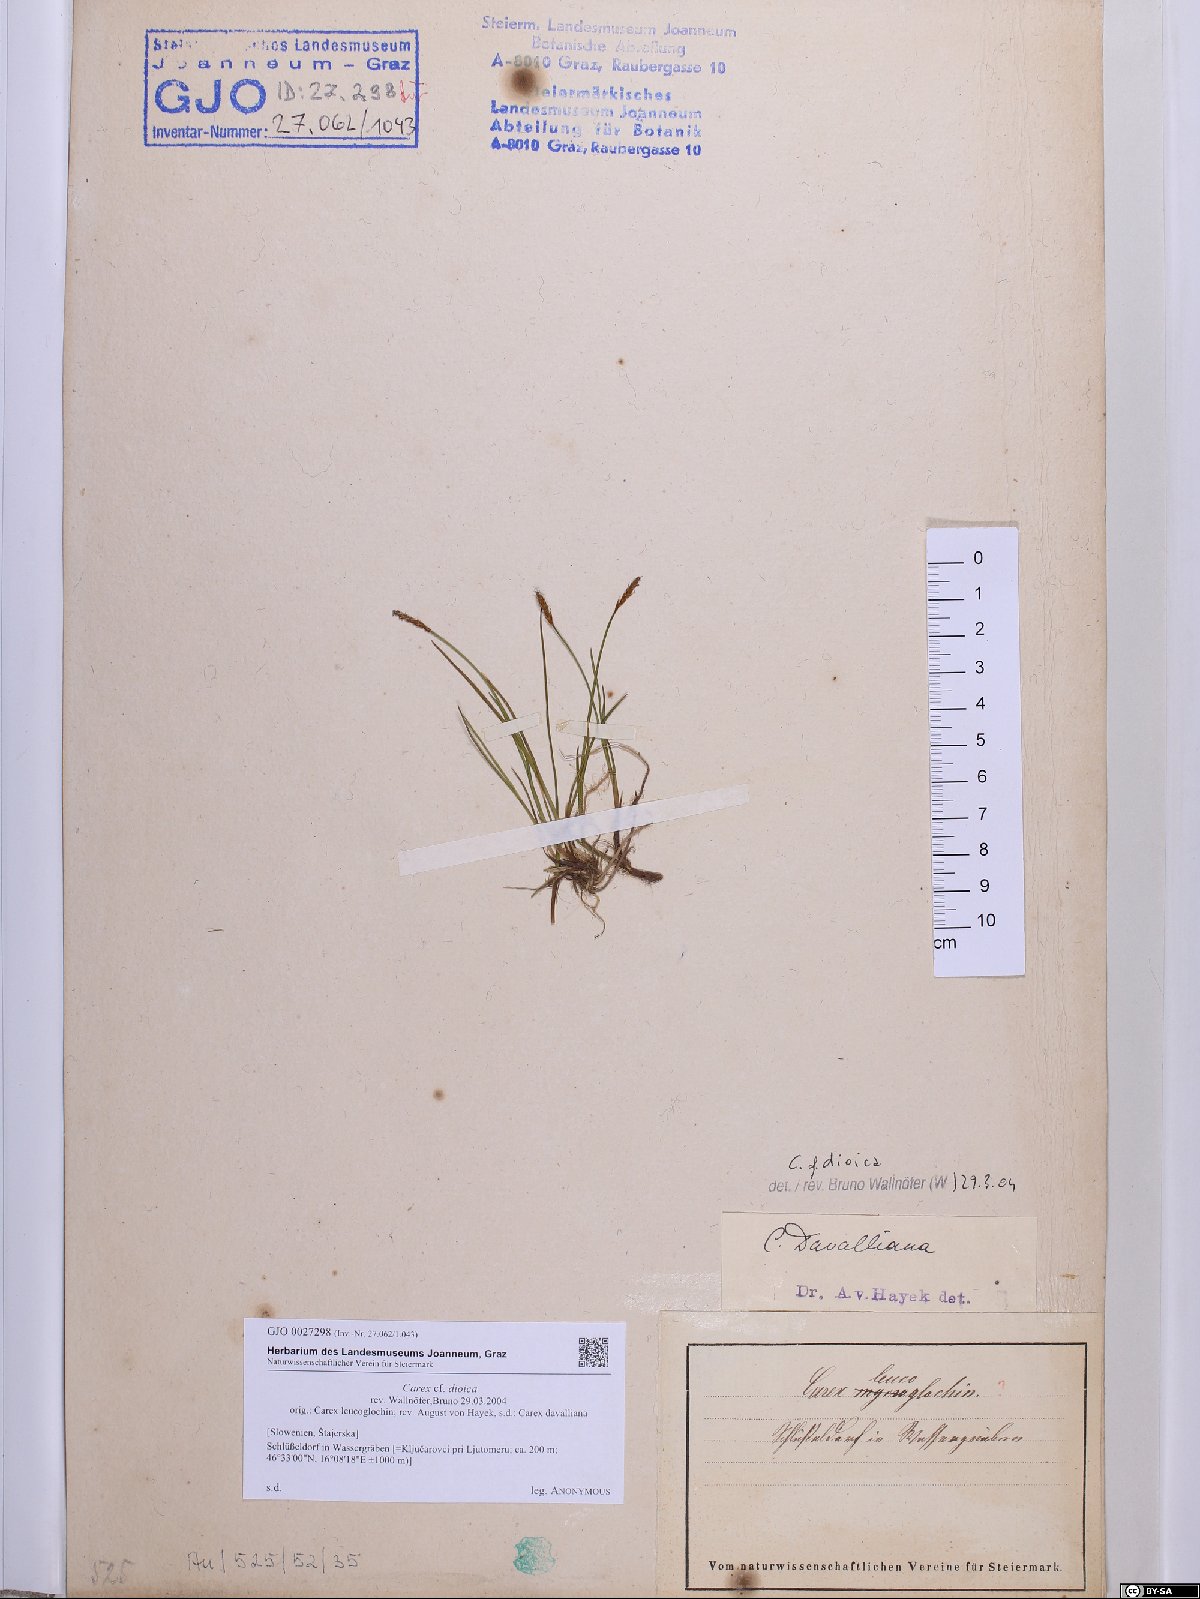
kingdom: Plantae
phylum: Tracheophyta
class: Liliopsida
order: Poales
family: Cyperaceae
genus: Carex
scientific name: Carex dioica
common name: Dioecious sedge
